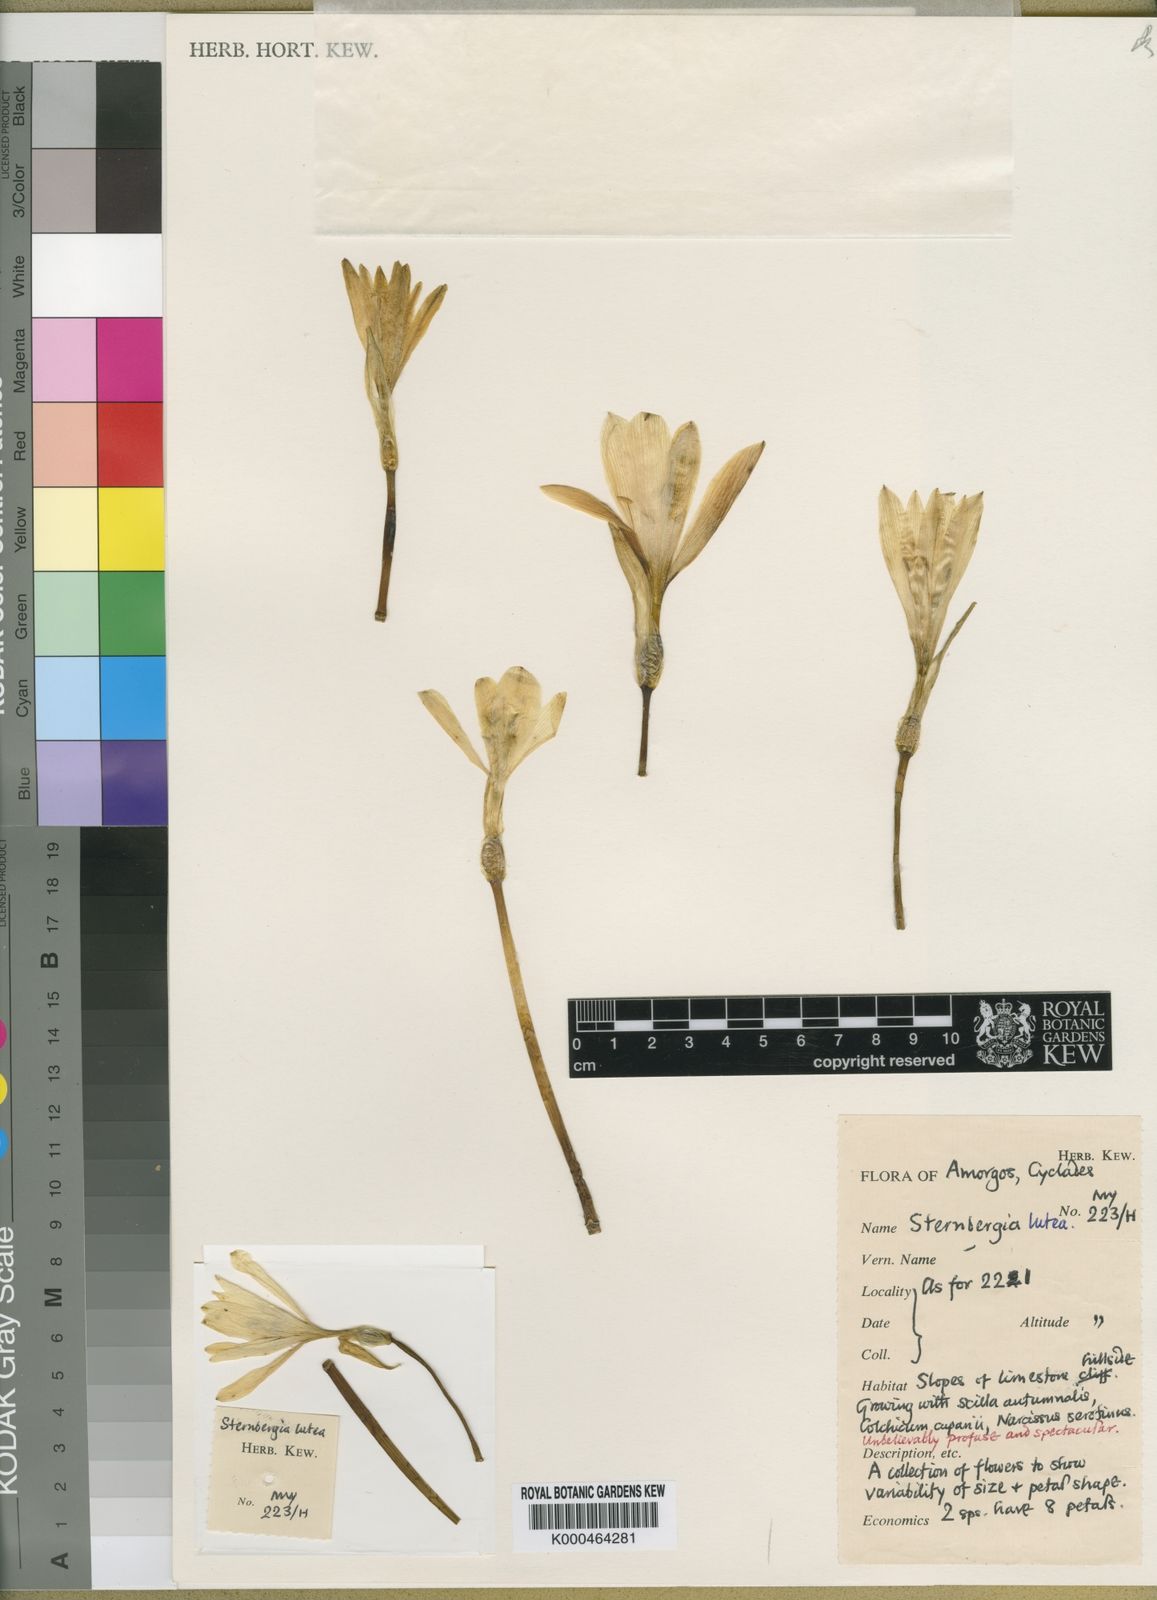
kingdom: Plantae
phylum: Tracheophyta
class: Liliopsida
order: Asparagales
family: Amaryllidaceae
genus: Sternbergia
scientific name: Sternbergia
